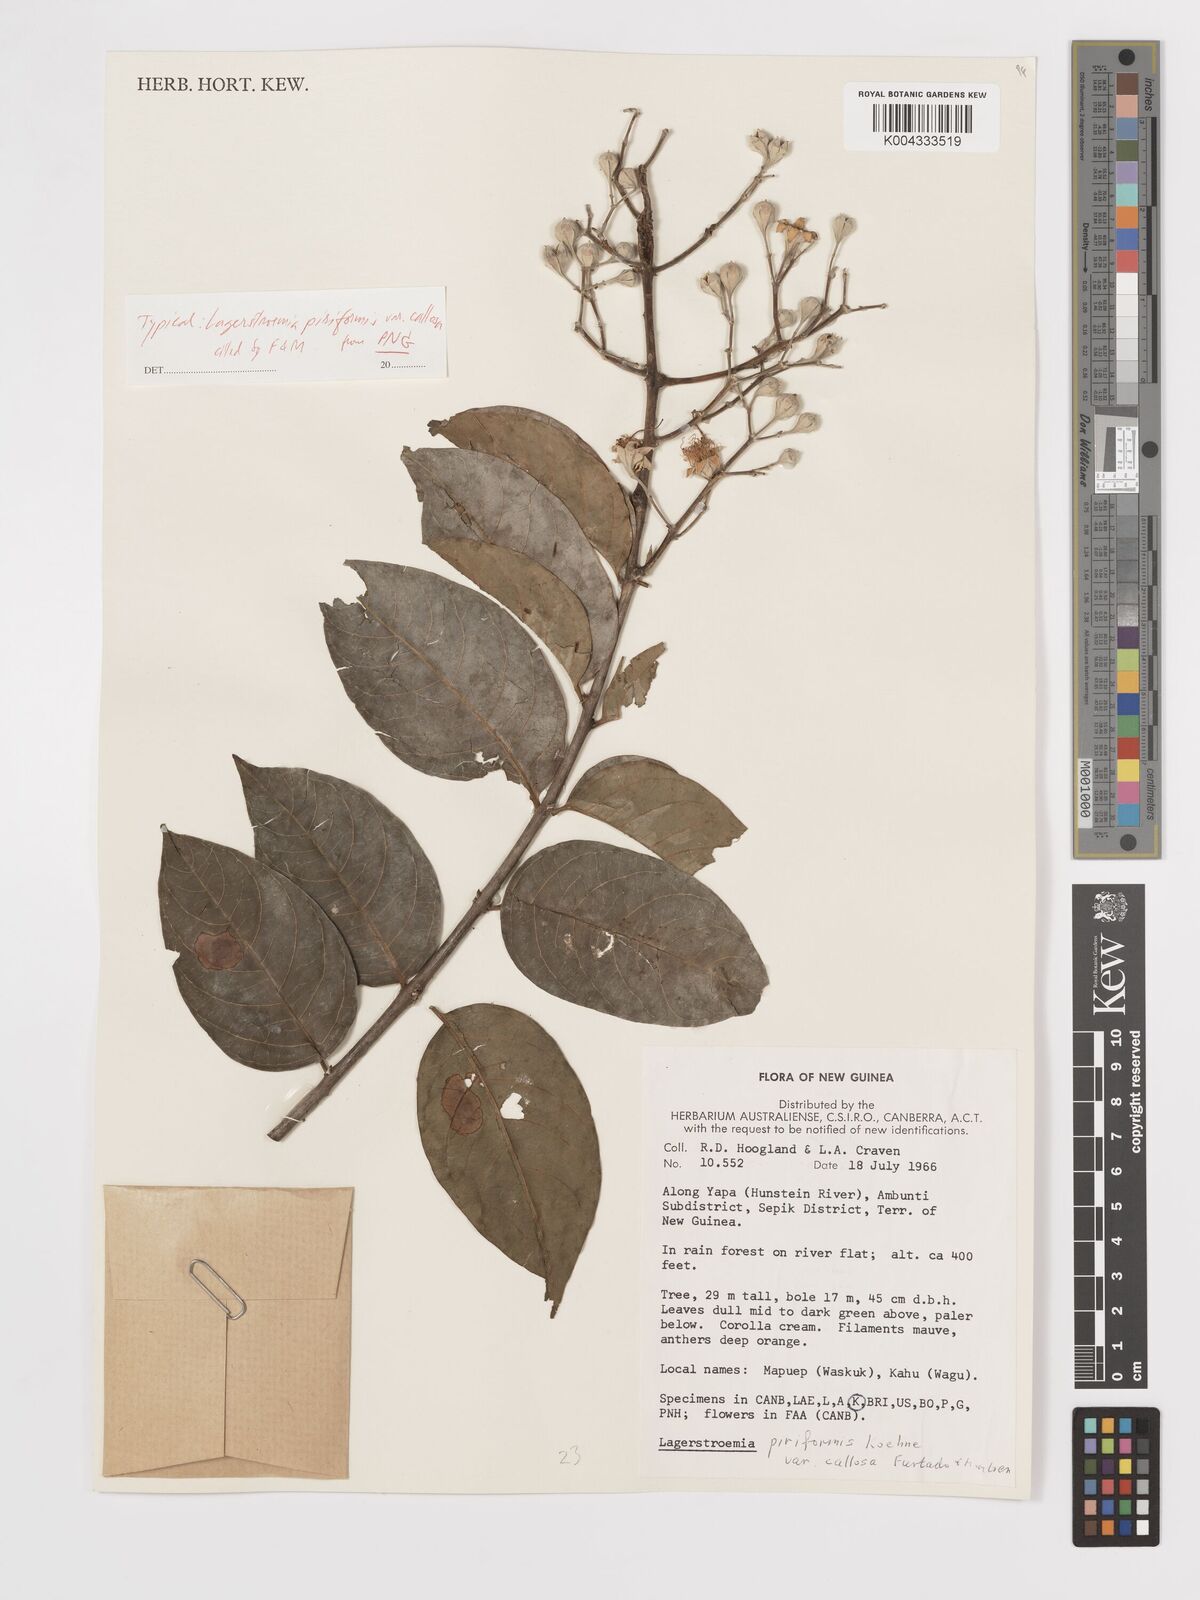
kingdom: Plantae
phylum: Tracheophyta
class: Magnoliopsida
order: Myrtales
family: Lythraceae
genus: Lagerstroemia
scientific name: Lagerstroemia celebica
